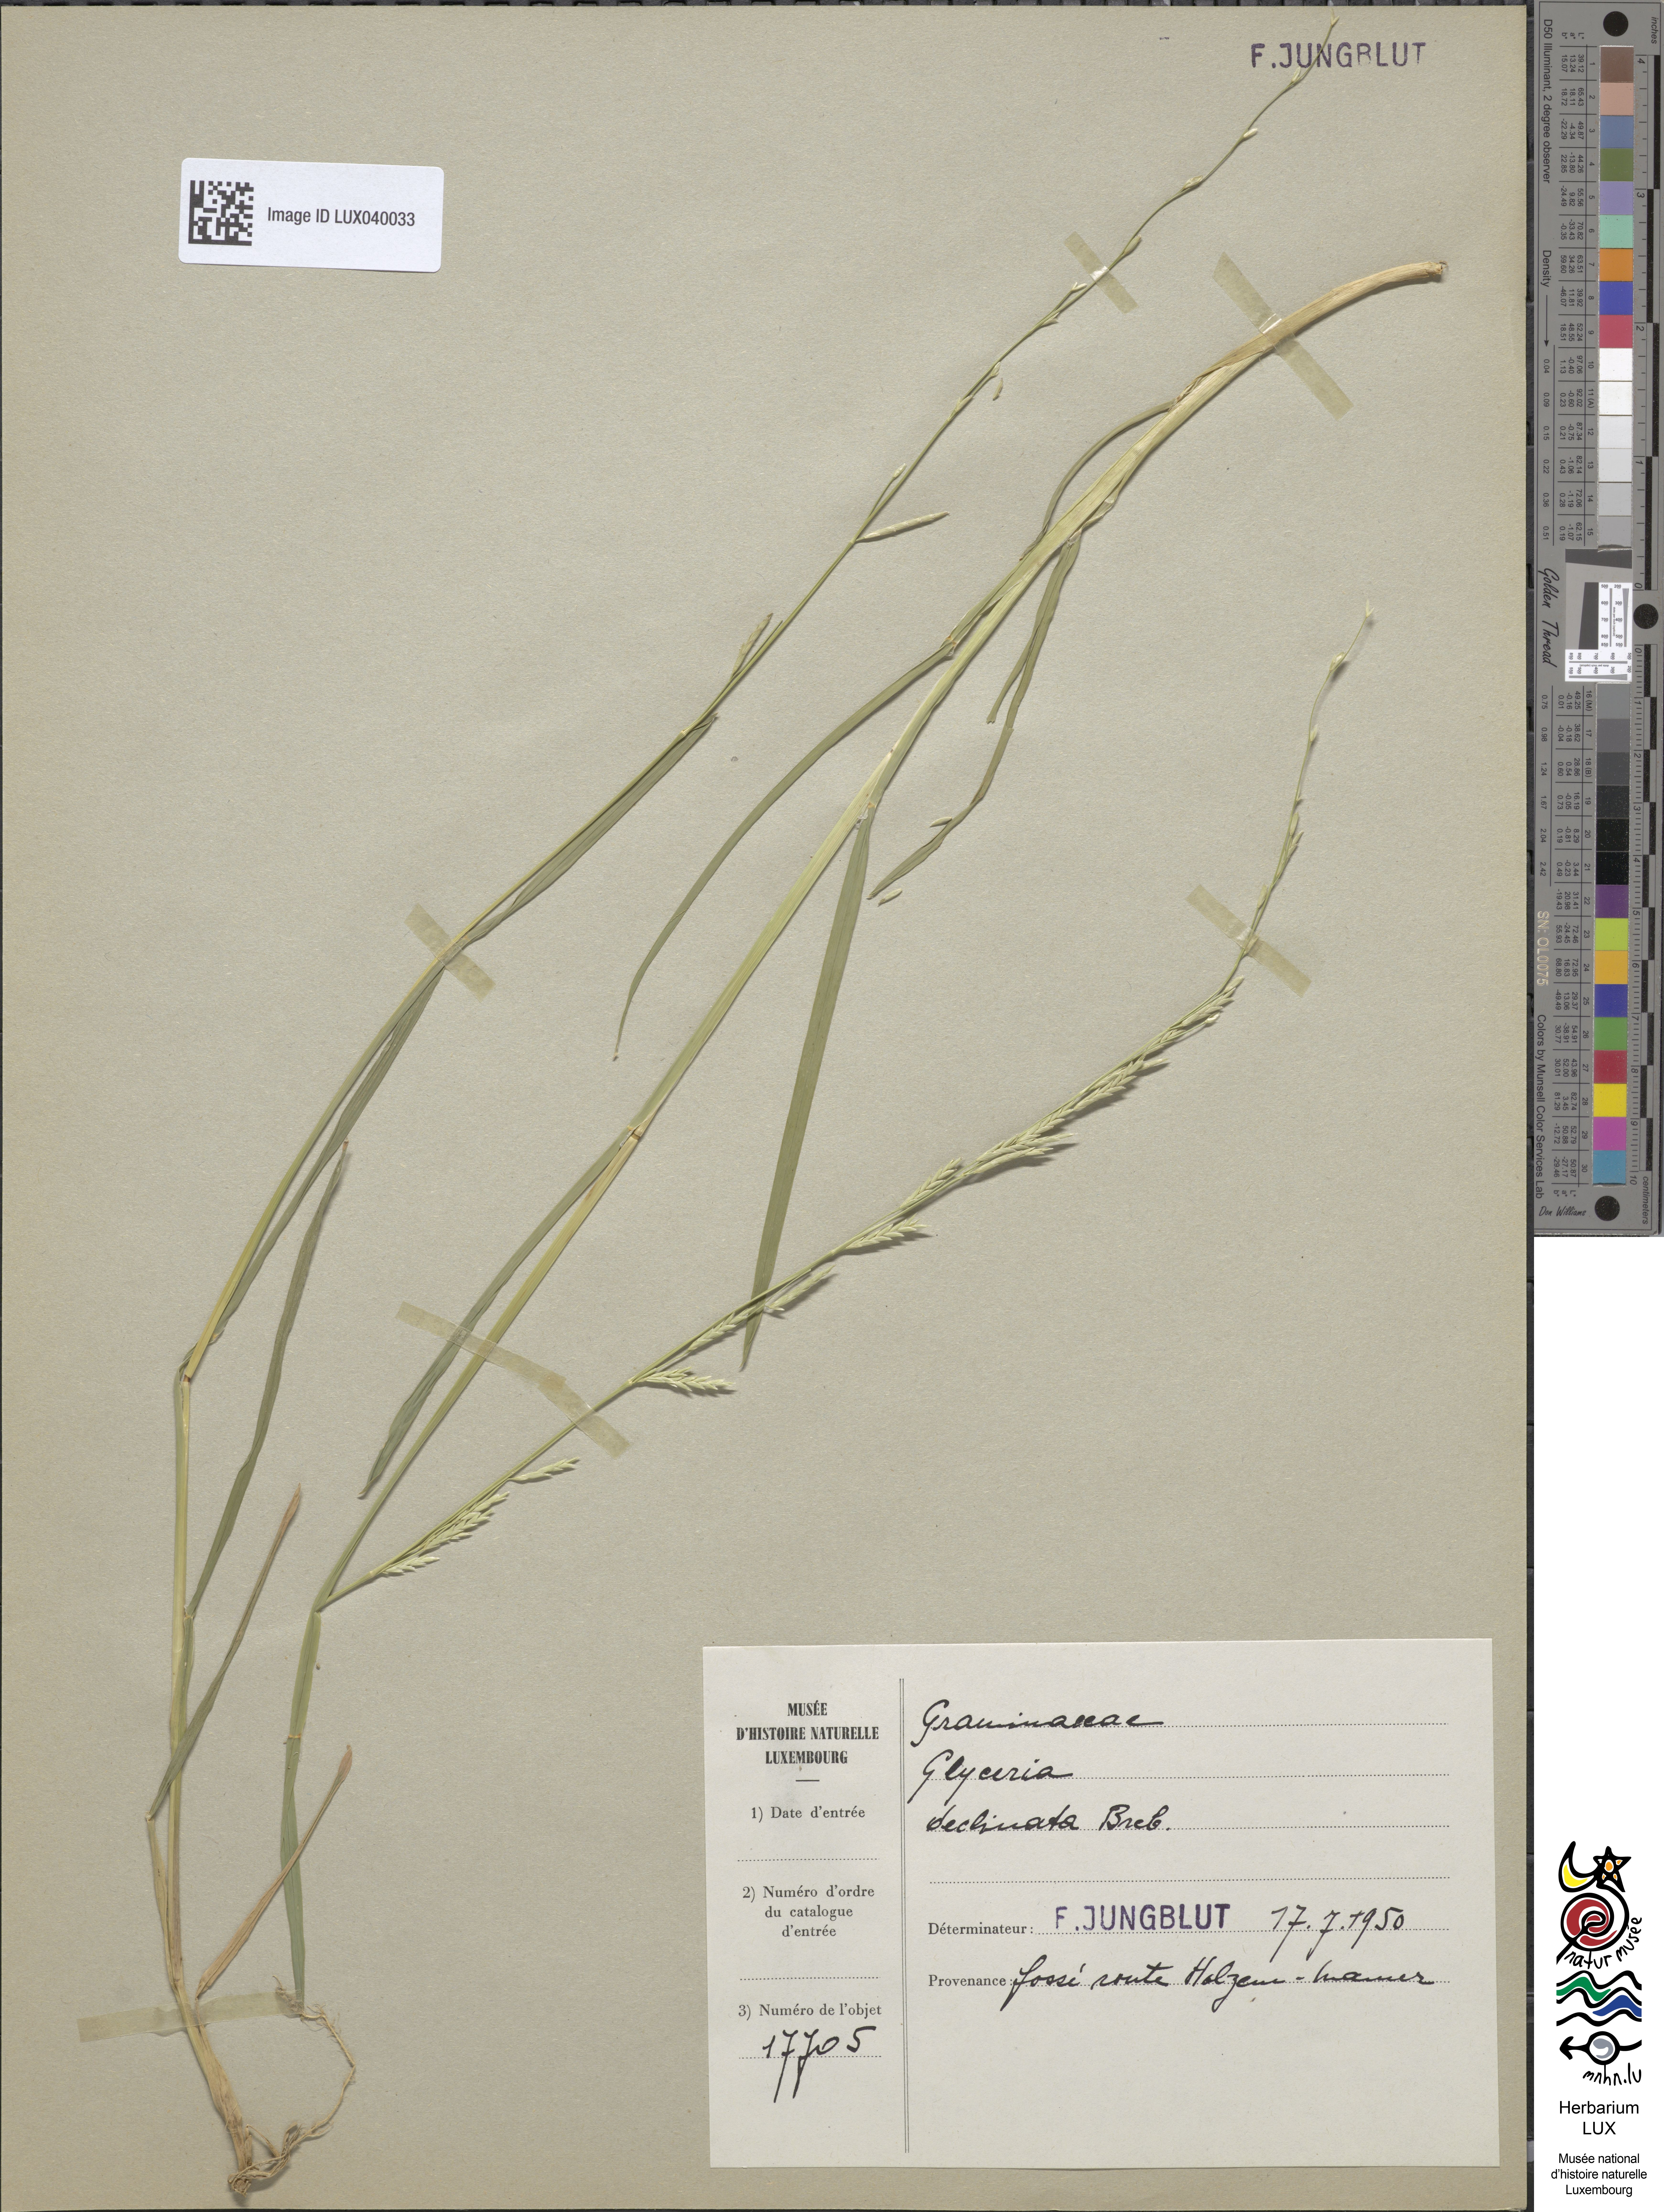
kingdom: Plantae
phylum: Tracheophyta
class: Liliopsida
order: Poales
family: Poaceae
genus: Glyceria
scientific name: Glyceria declinata
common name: Small sweet-grass
